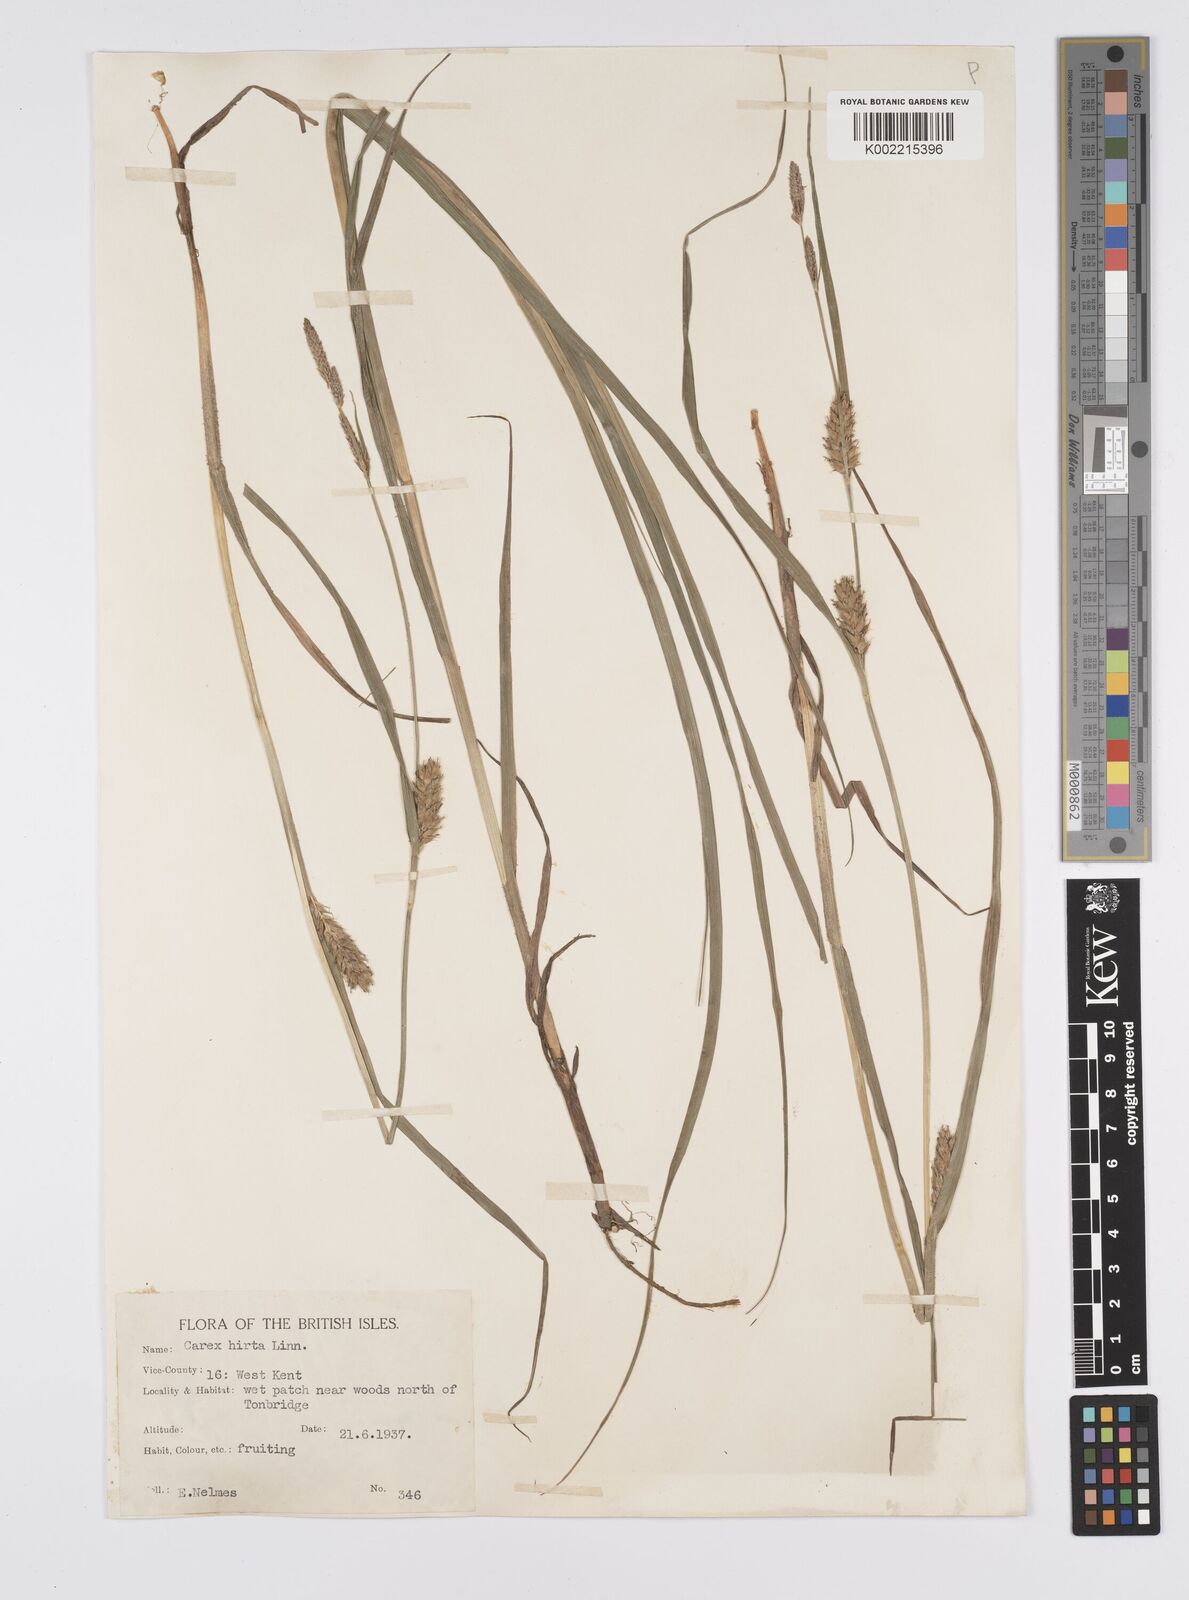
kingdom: Plantae
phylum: Tracheophyta
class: Liliopsida
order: Poales
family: Cyperaceae
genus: Carex
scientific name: Carex hirta
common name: Hairy sedge
